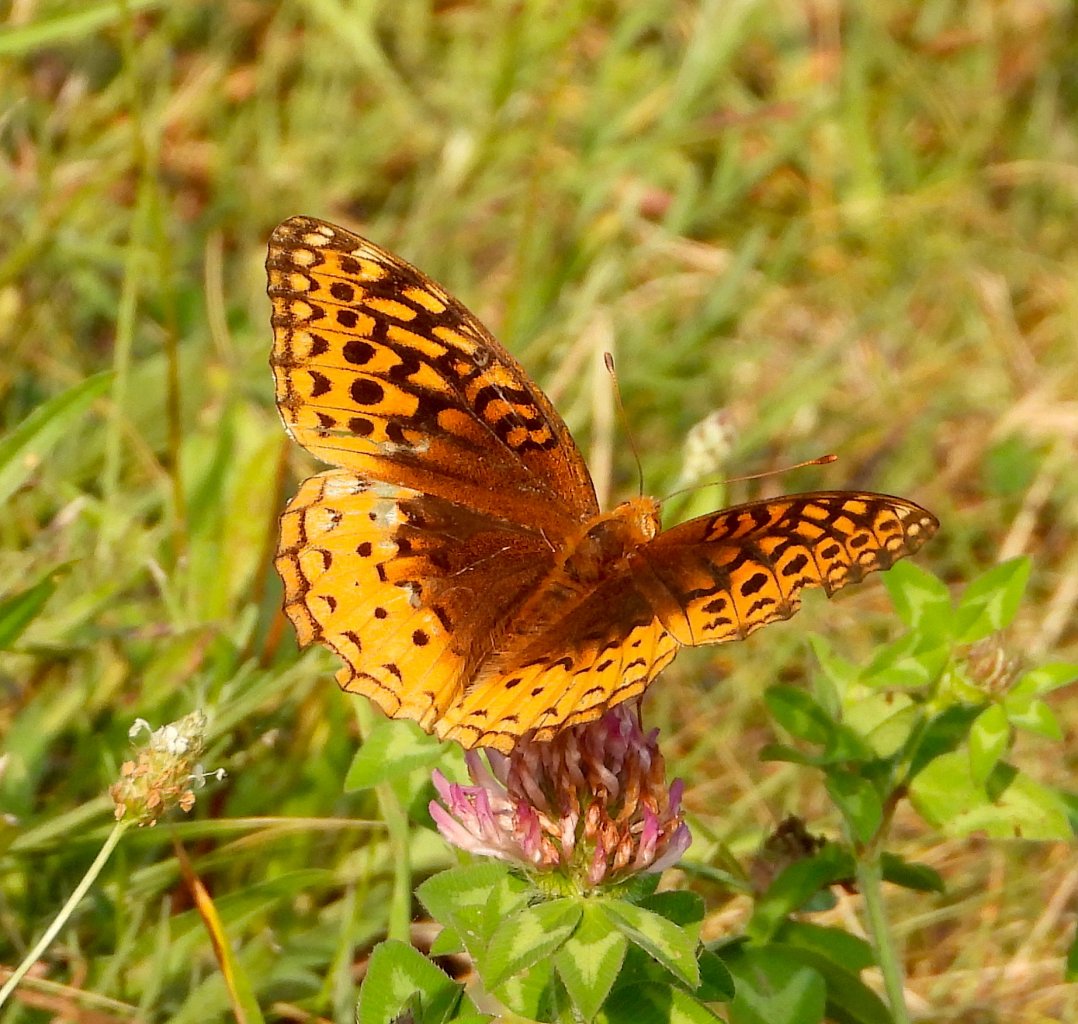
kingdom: Animalia
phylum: Arthropoda
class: Insecta
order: Lepidoptera
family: Nymphalidae
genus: Speyeria
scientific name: Speyeria cybele
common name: Great Spangled Fritillary
